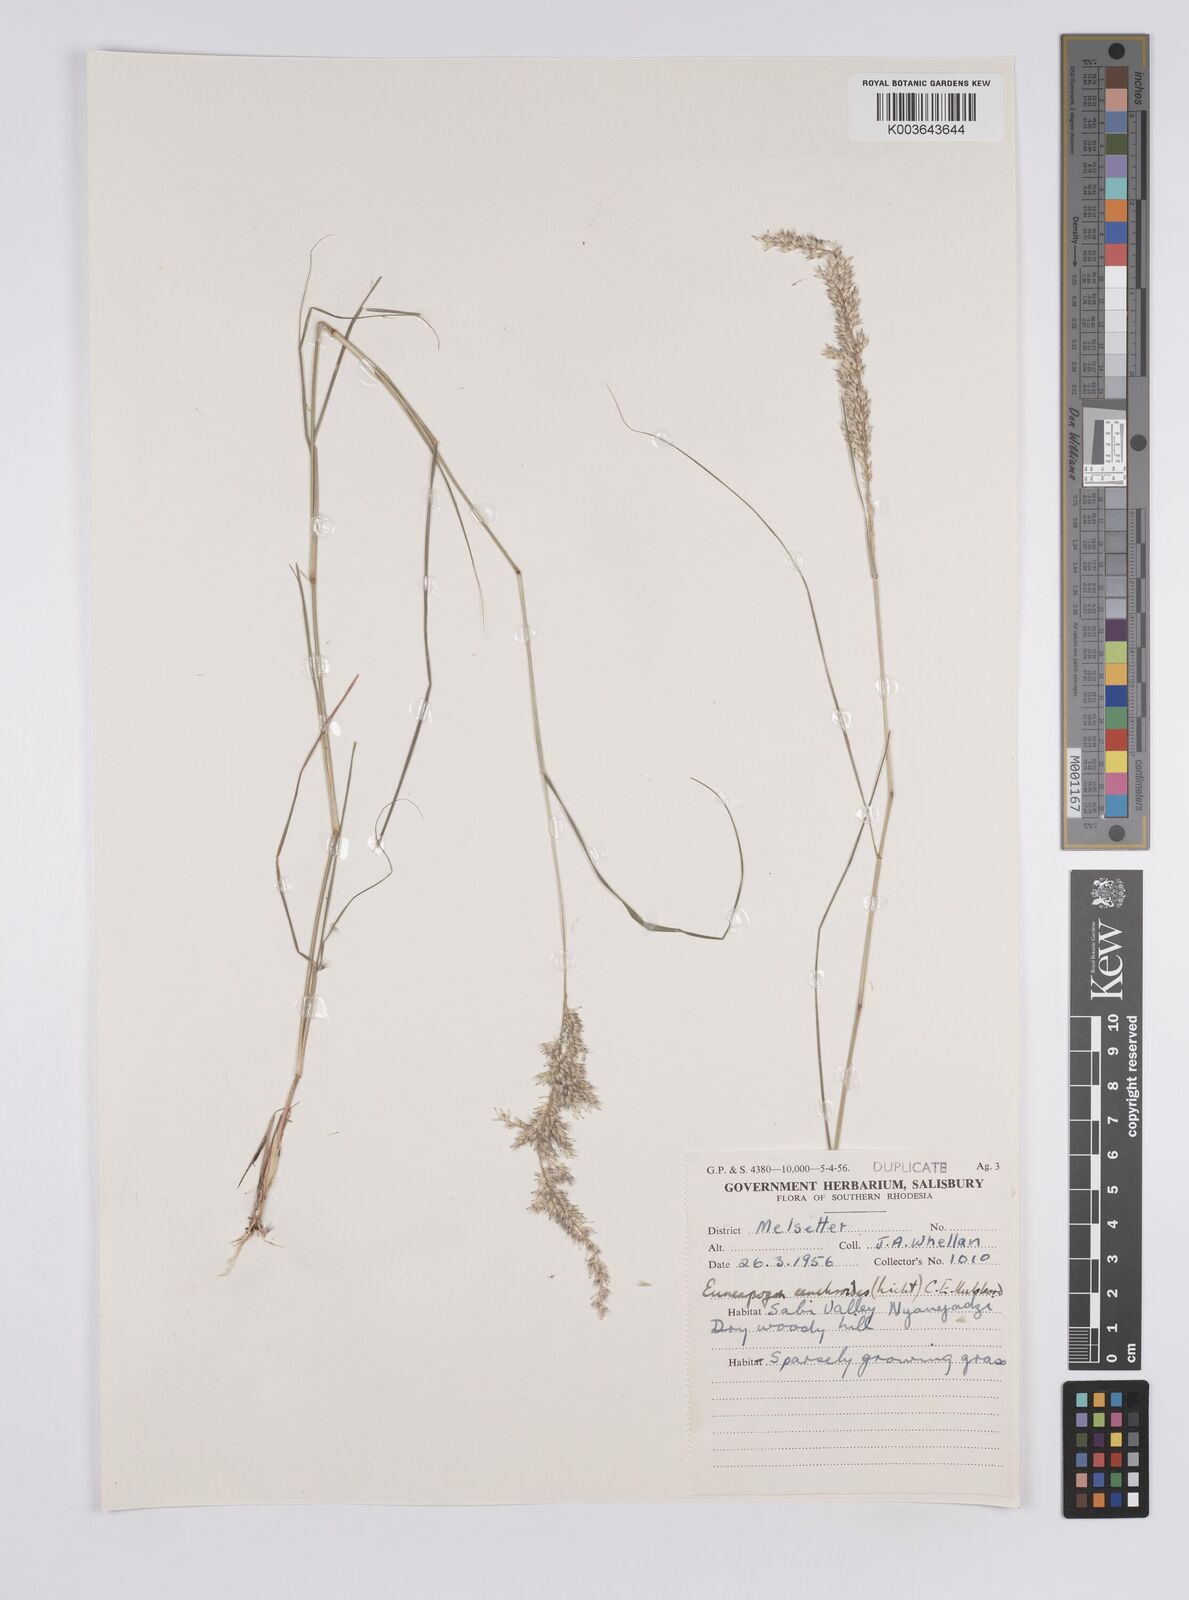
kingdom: Plantae
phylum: Tracheophyta
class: Liliopsida
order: Poales
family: Poaceae
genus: Enneapogon
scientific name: Enneapogon cenchroides
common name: Soft feather pappusgrass
